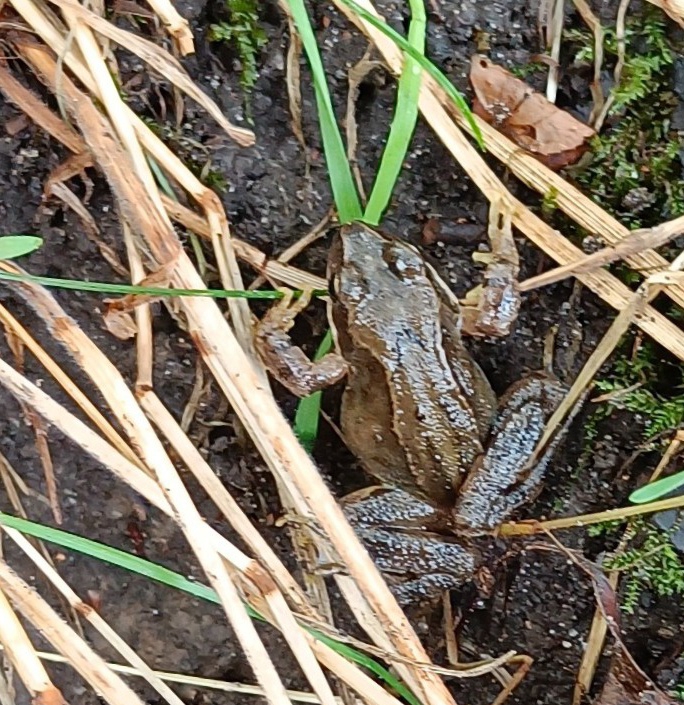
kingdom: Animalia
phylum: Chordata
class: Amphibia
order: Anura
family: Ranidae
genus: Rana
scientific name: Rana temporaria
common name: Butsnudet frø
